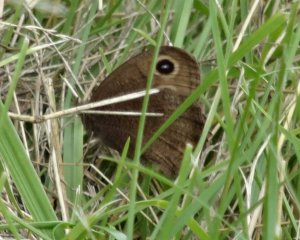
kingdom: Animalia
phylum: Arthropoda
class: Insecta
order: Lepidoptera
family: Nymphalidae
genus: Cercyonis
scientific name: Cercyonis pegala
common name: Common Wood-Nymph
